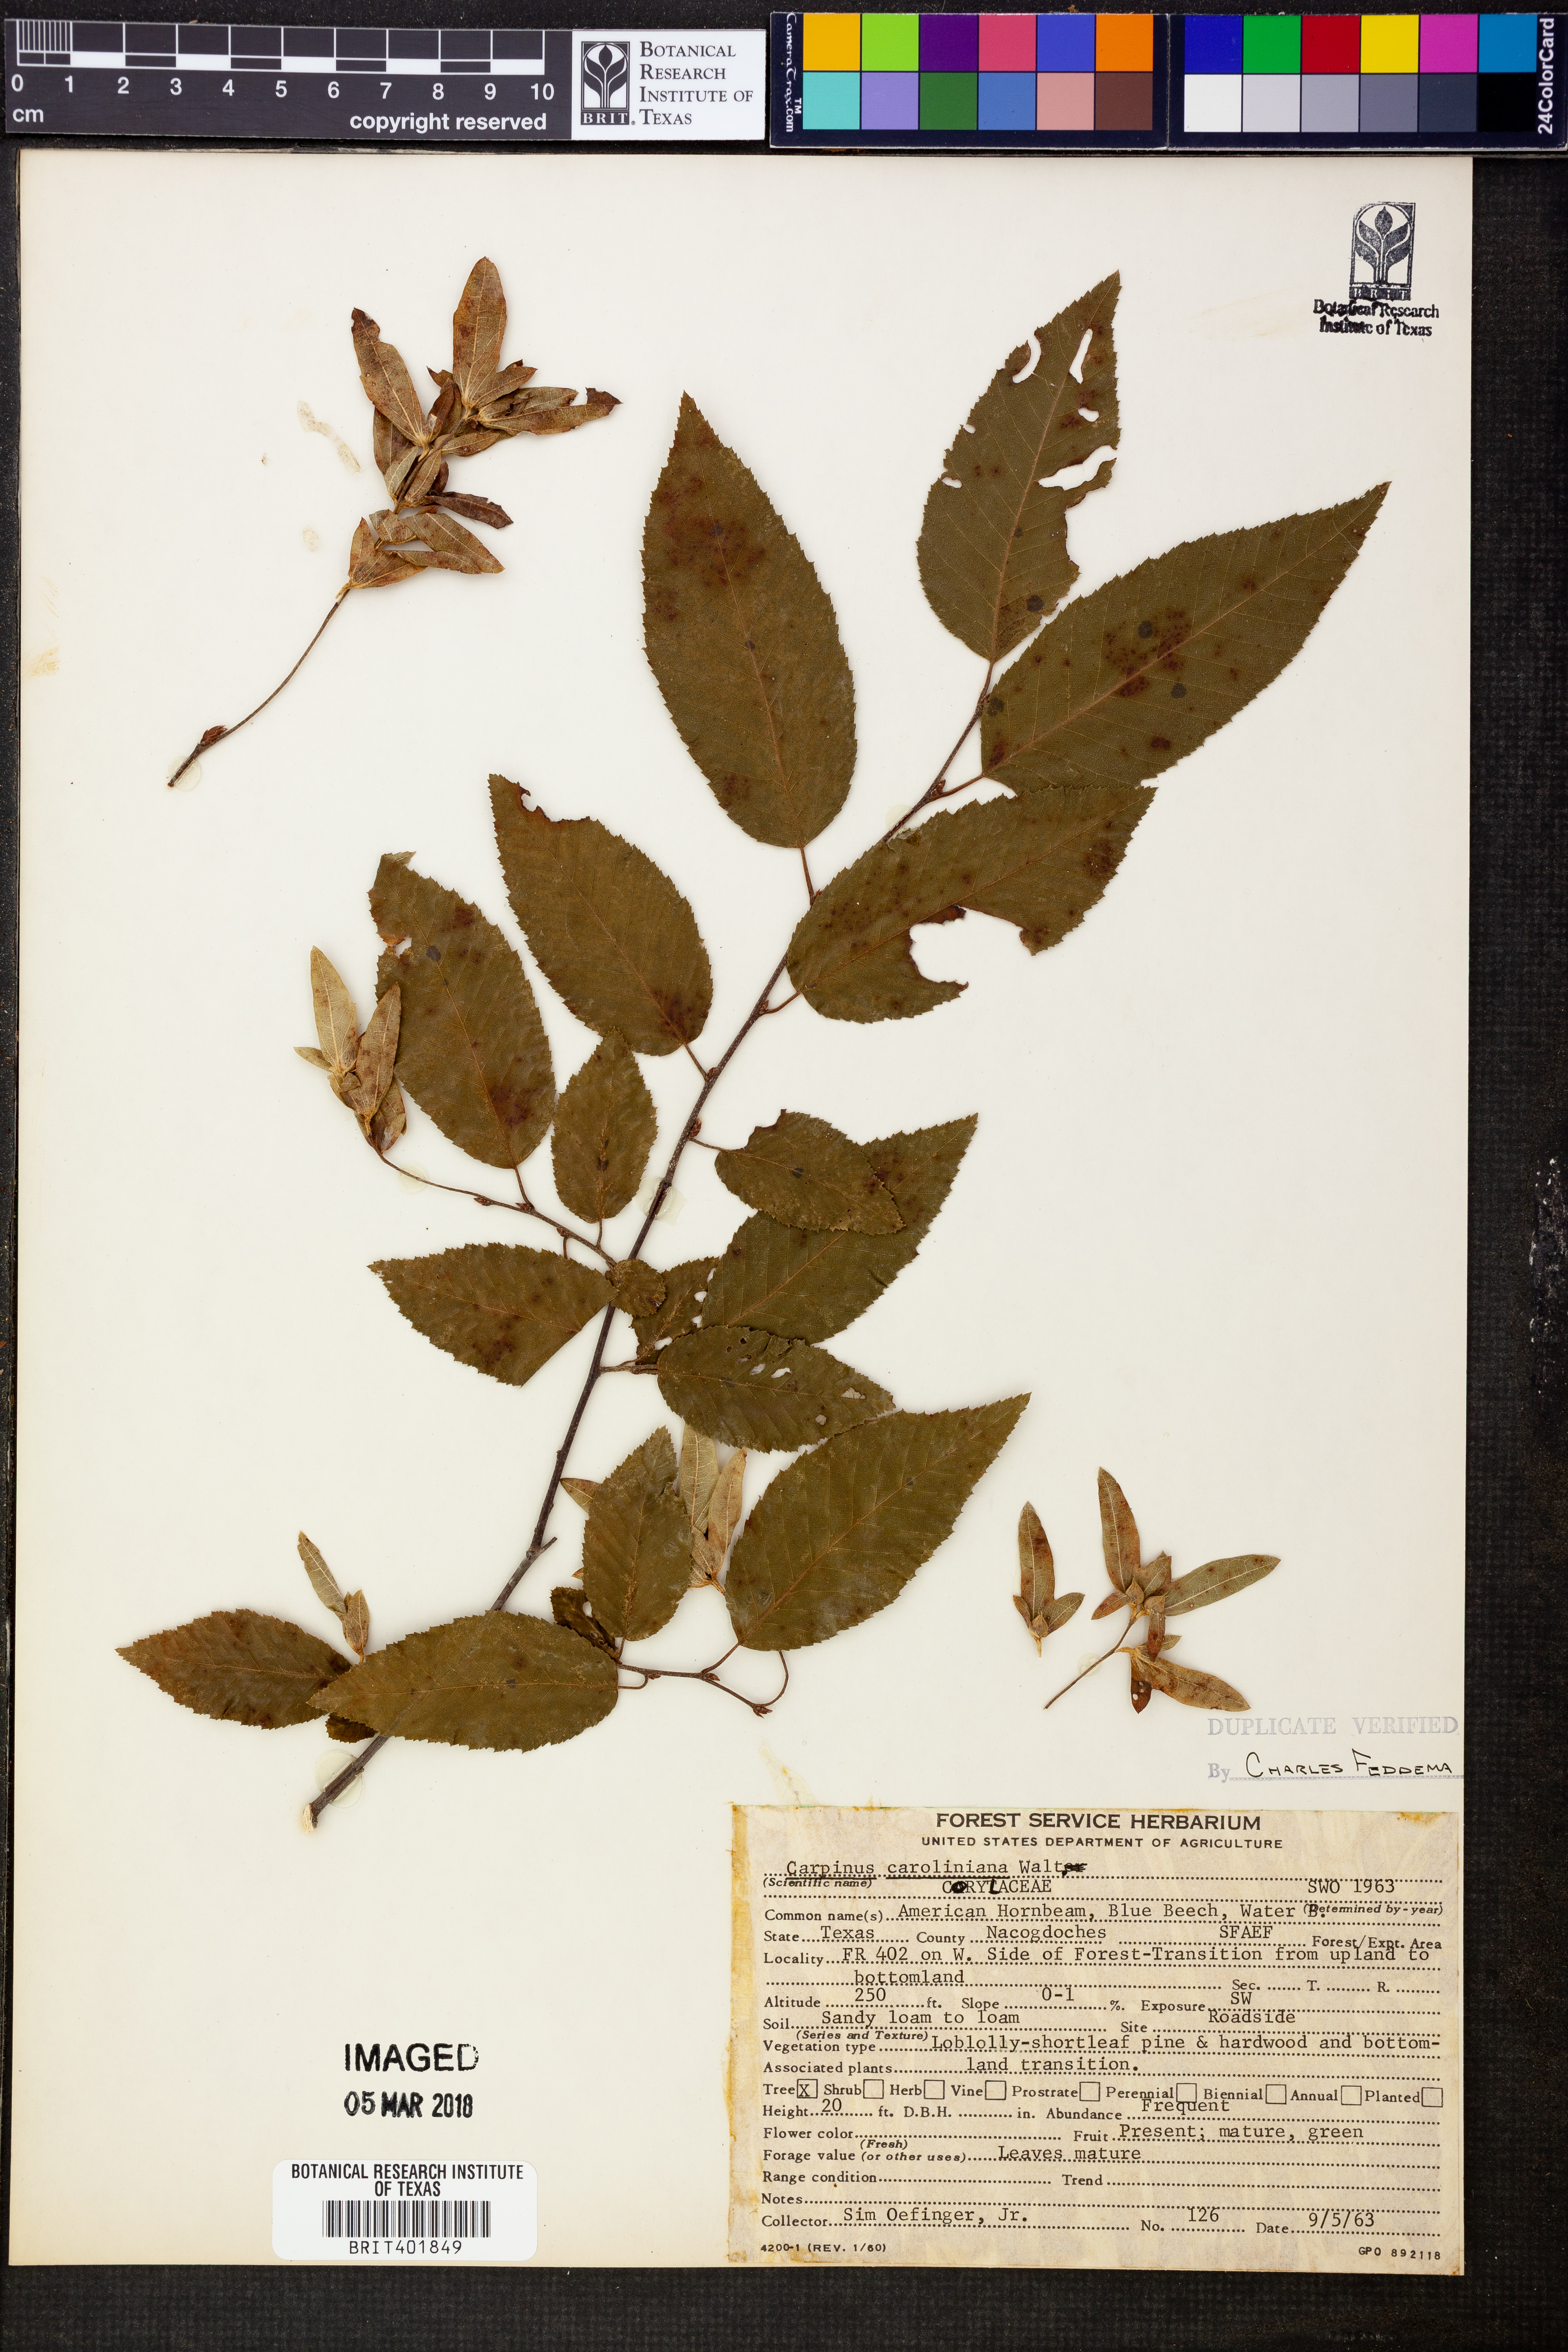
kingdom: Plantae
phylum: Tracheophyta
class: Magnoliopsida
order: Fagales
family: Betulaceae
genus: Carpinus
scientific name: Carpinus caroliniana
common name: American hornbeam
